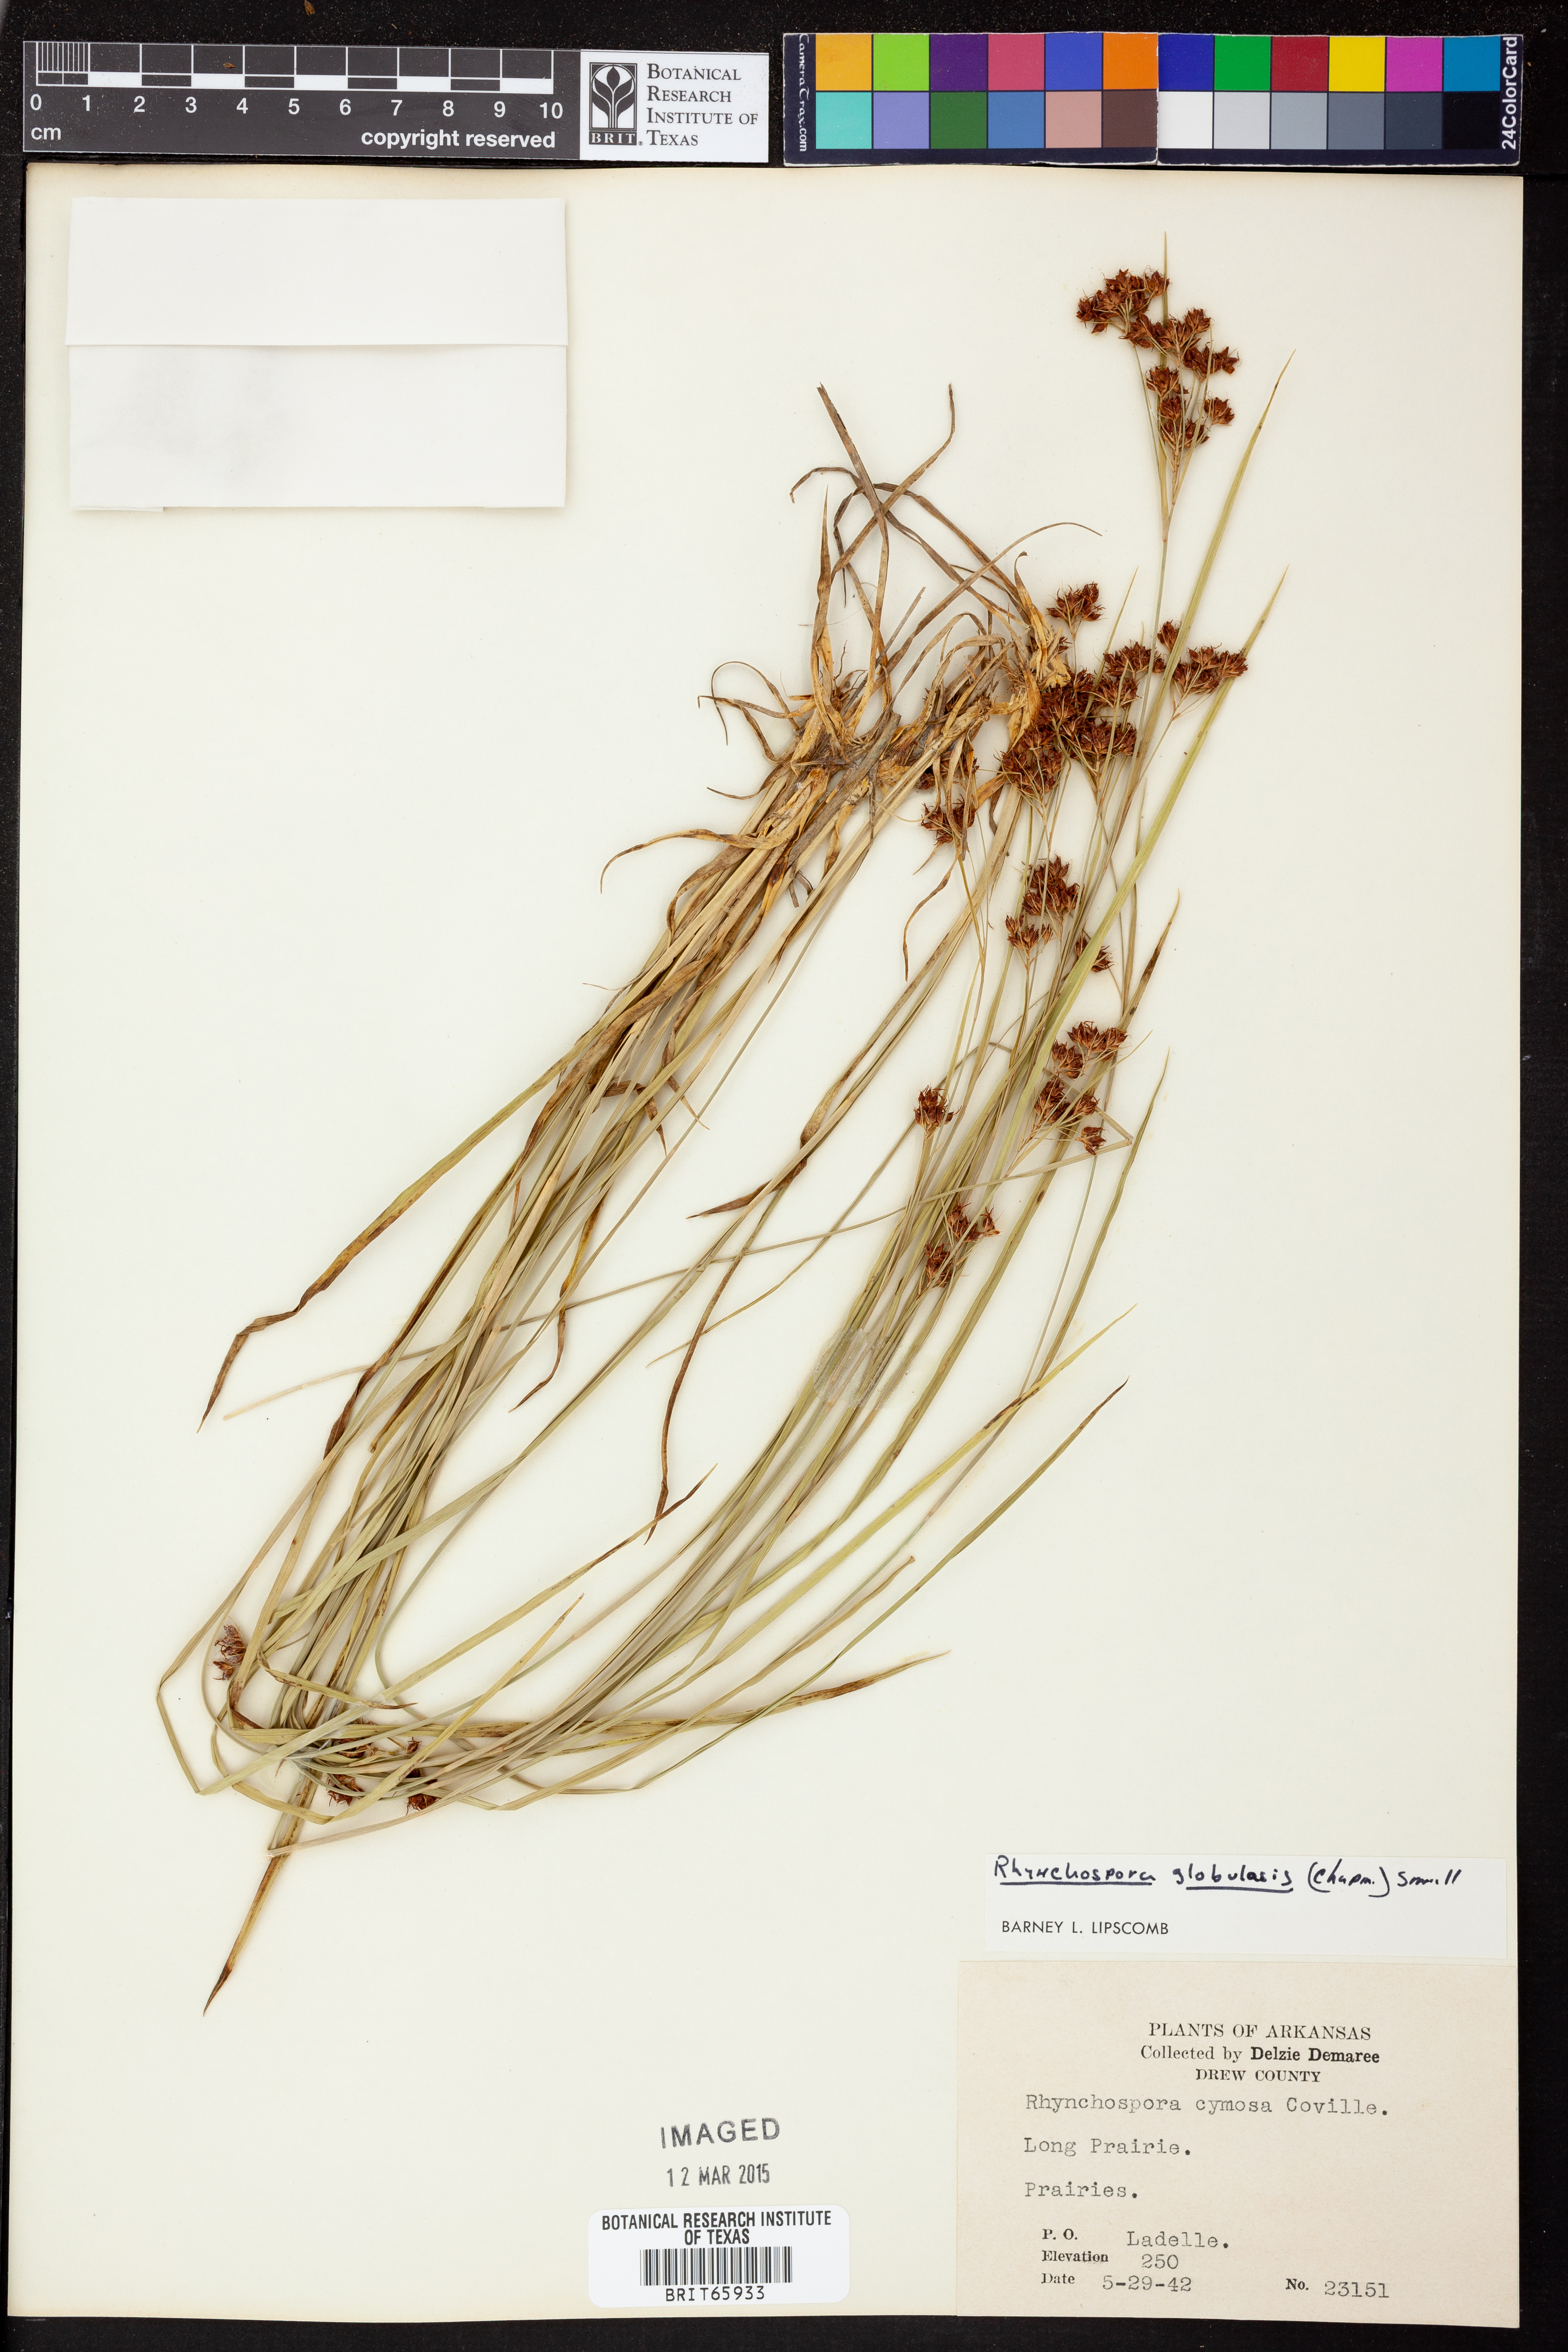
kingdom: Plantae
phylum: Tracheophyta
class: Liliopsida
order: Poales
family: Cyperaceae
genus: Rhynchospora
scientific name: Rhynchospora globularis
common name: Globe beaksedge
